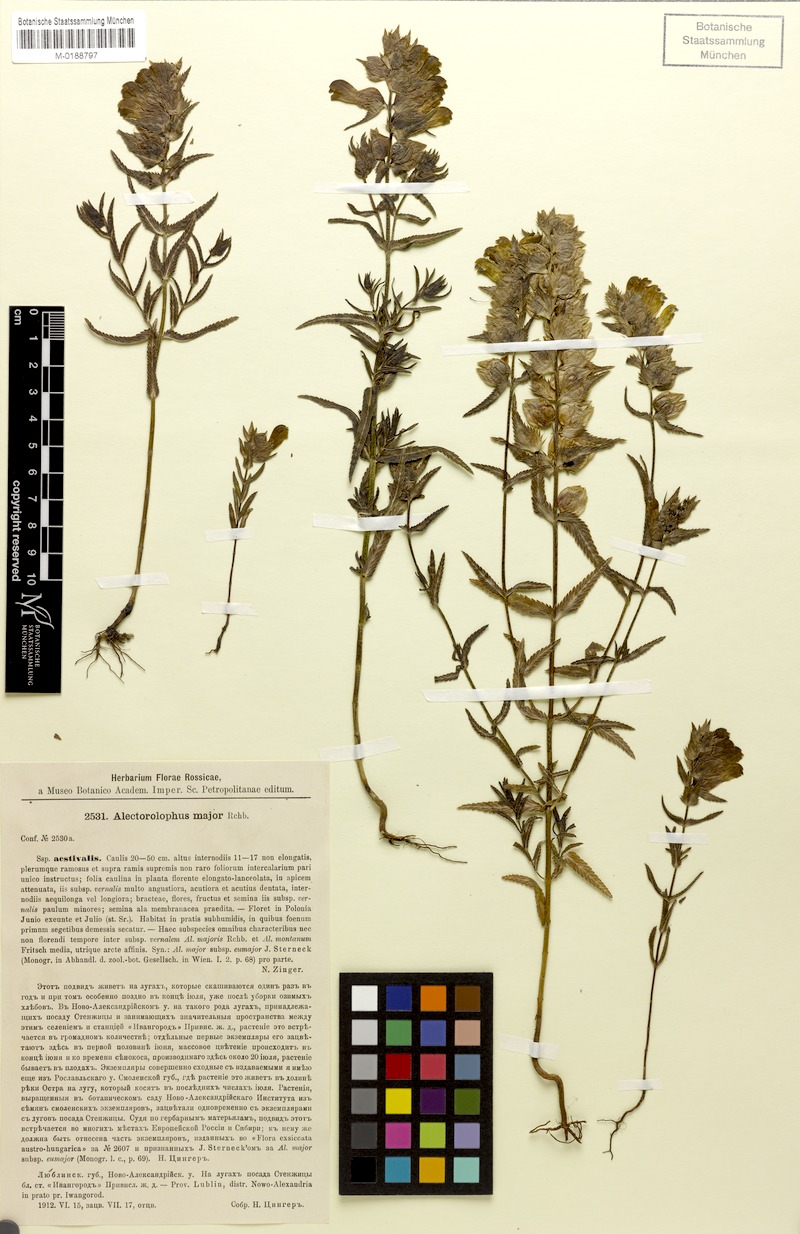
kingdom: Plantae
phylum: Tracheophyta
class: Magnoliopsida
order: Lamiales
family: Orobanchaceae
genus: Rhinanthus
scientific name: Rhinanthus serotinus
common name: Late-flowering yellow rattle
